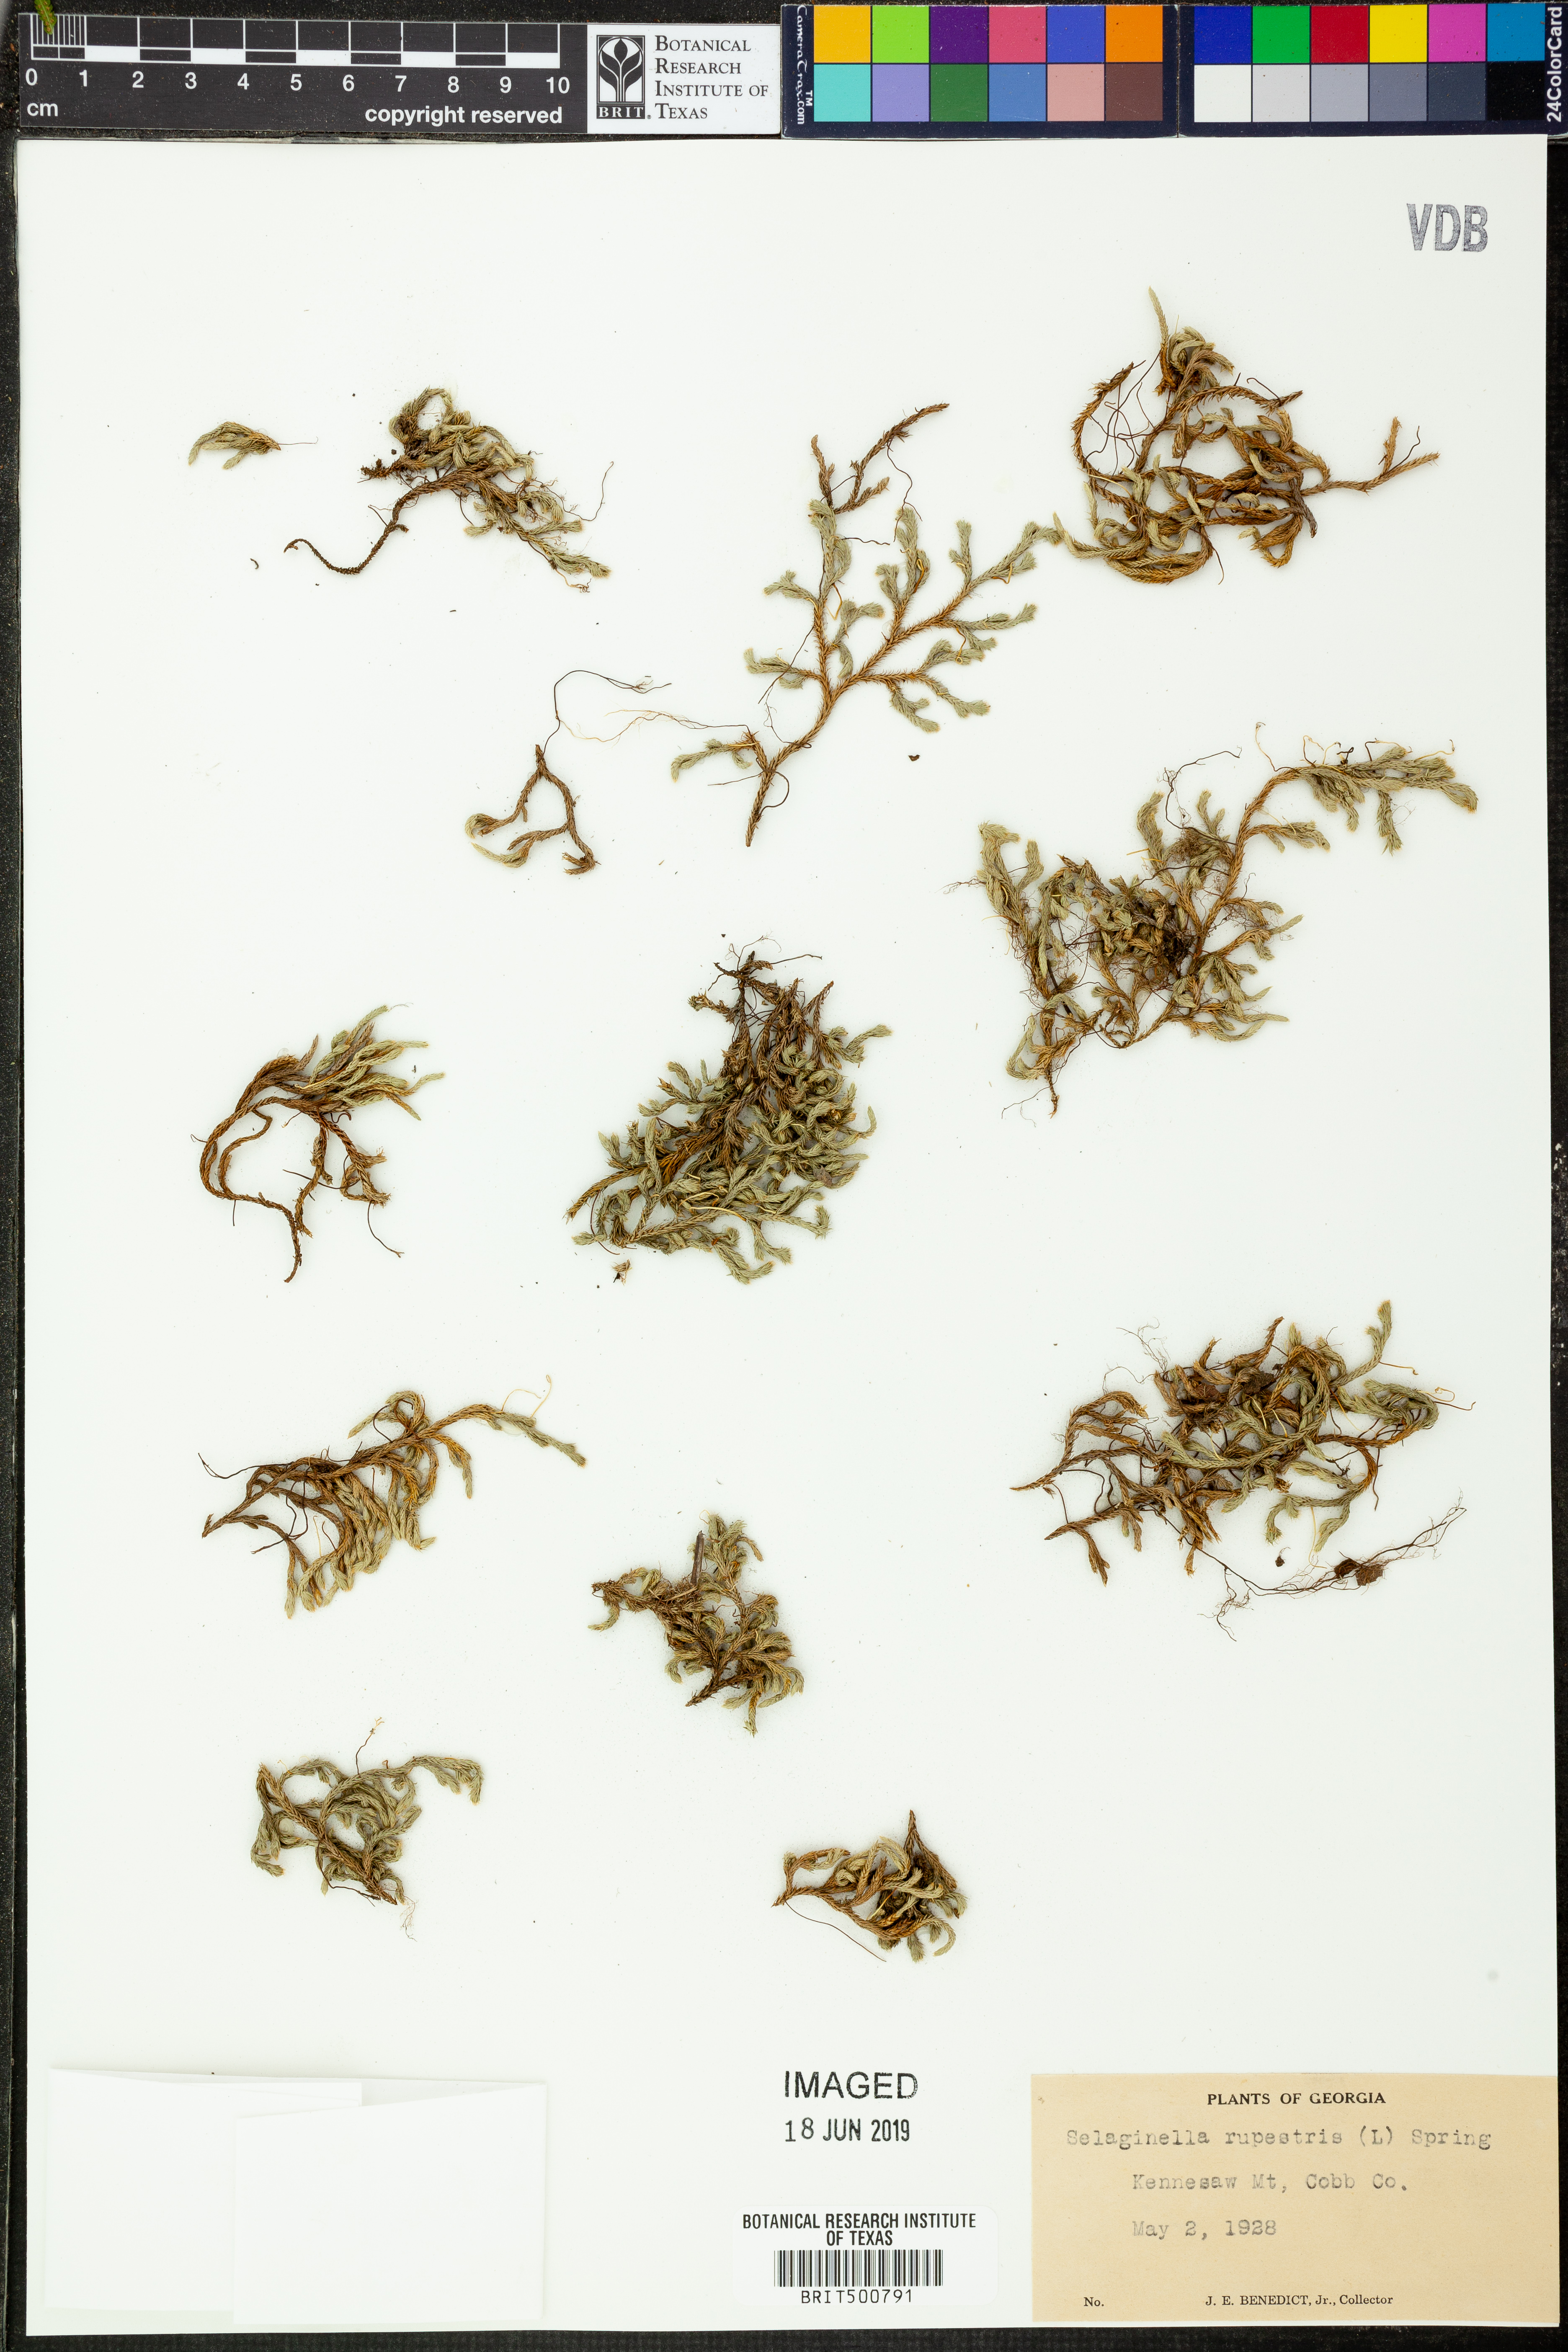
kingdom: Plantae
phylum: Tracheophyta
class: Lycopodiopsida
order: Selaginellales
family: Selaginellaceae
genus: Selaginella
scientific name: Selaginella rupestris
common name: Dwarf spikemoss
